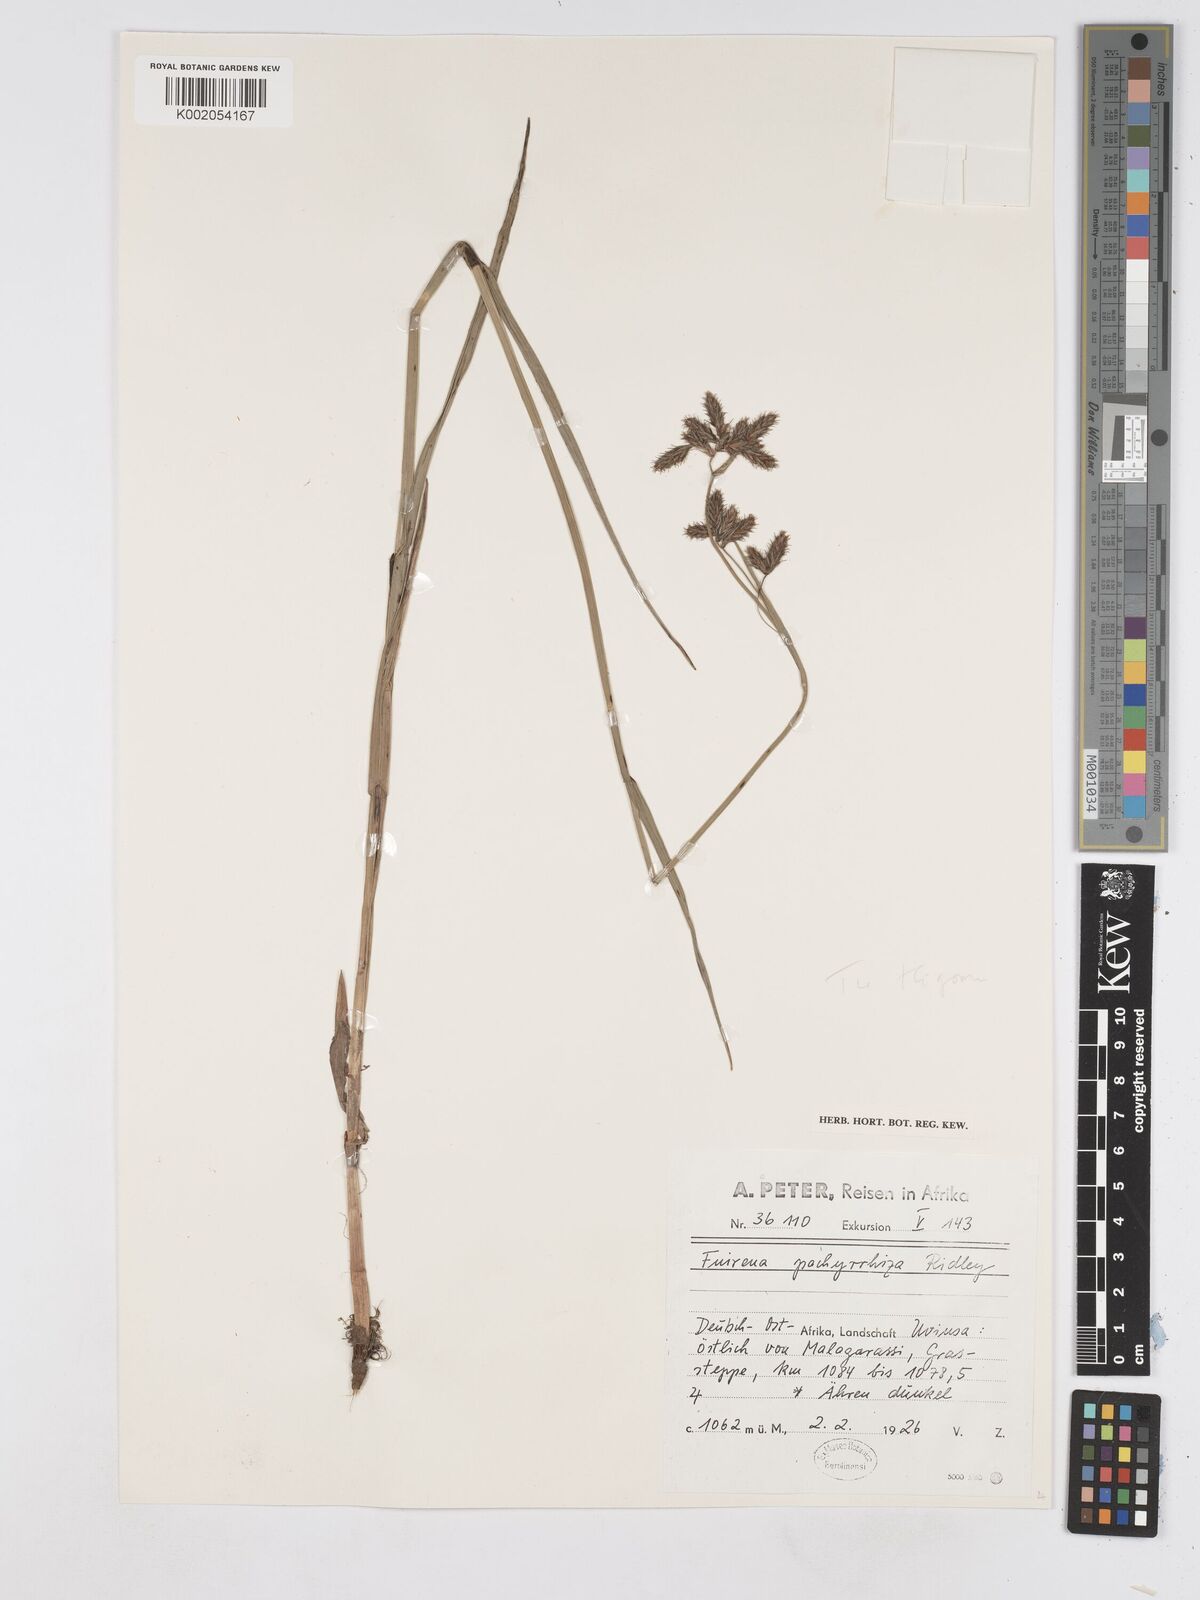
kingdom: Plantae
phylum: Tracheophyta
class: Liliopsida
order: Poales
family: Cyperaceae
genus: Fuirena
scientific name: Fuirena pachyrrhiza
